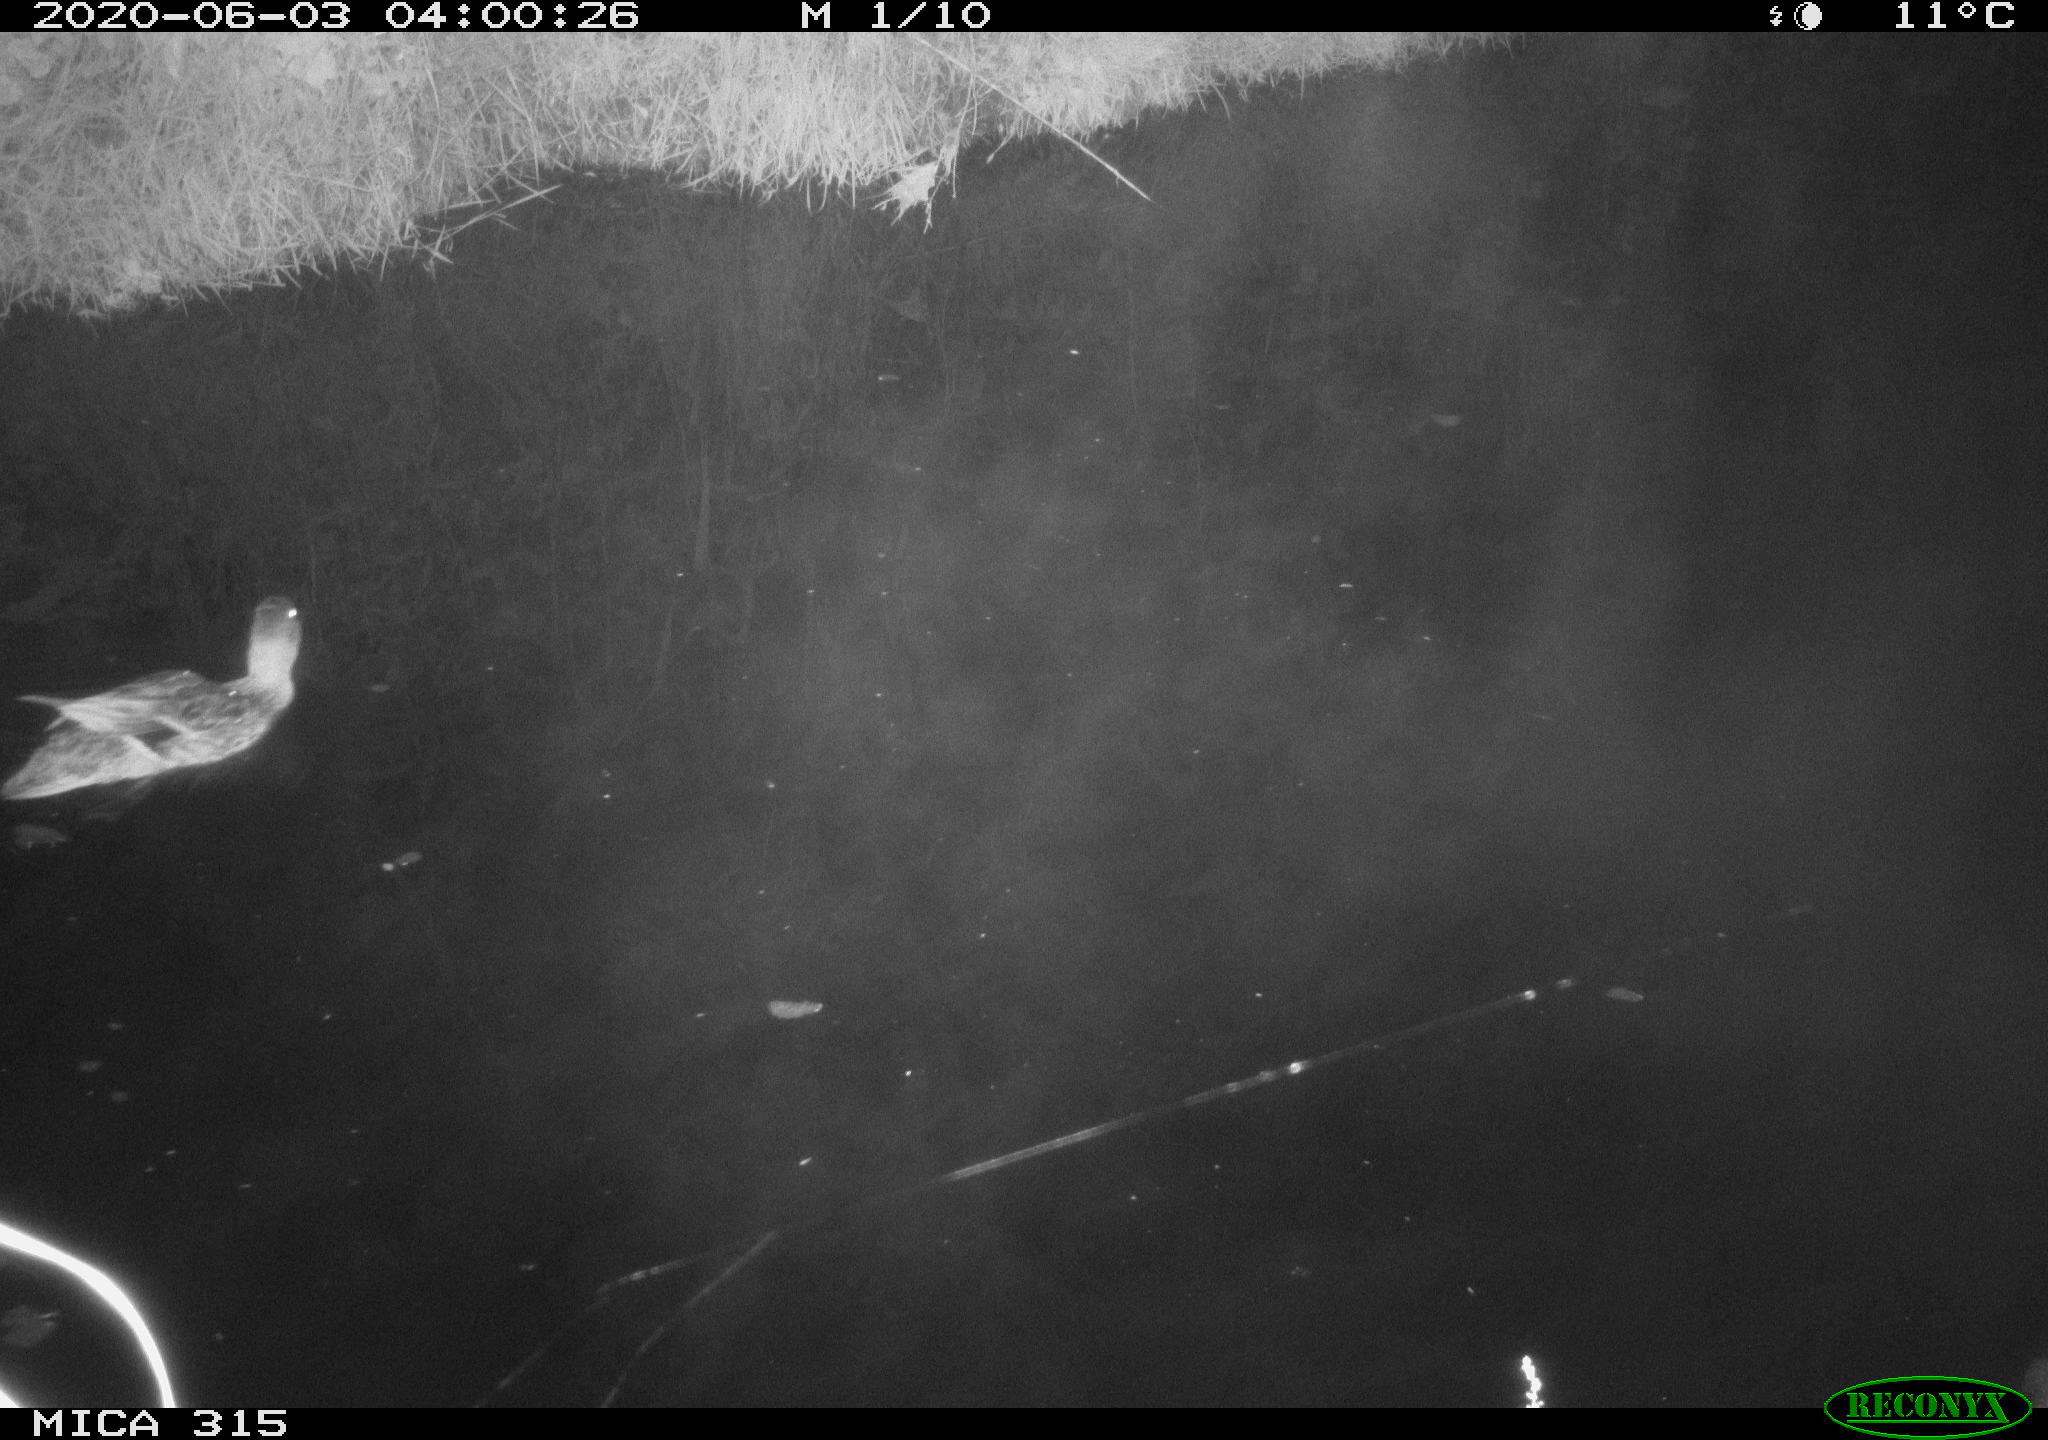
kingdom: Animalia
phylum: Chordata
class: Aves
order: Anseriformes
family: Anatidae
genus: Anas
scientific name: Anas platyrhynchos
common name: Mallard
